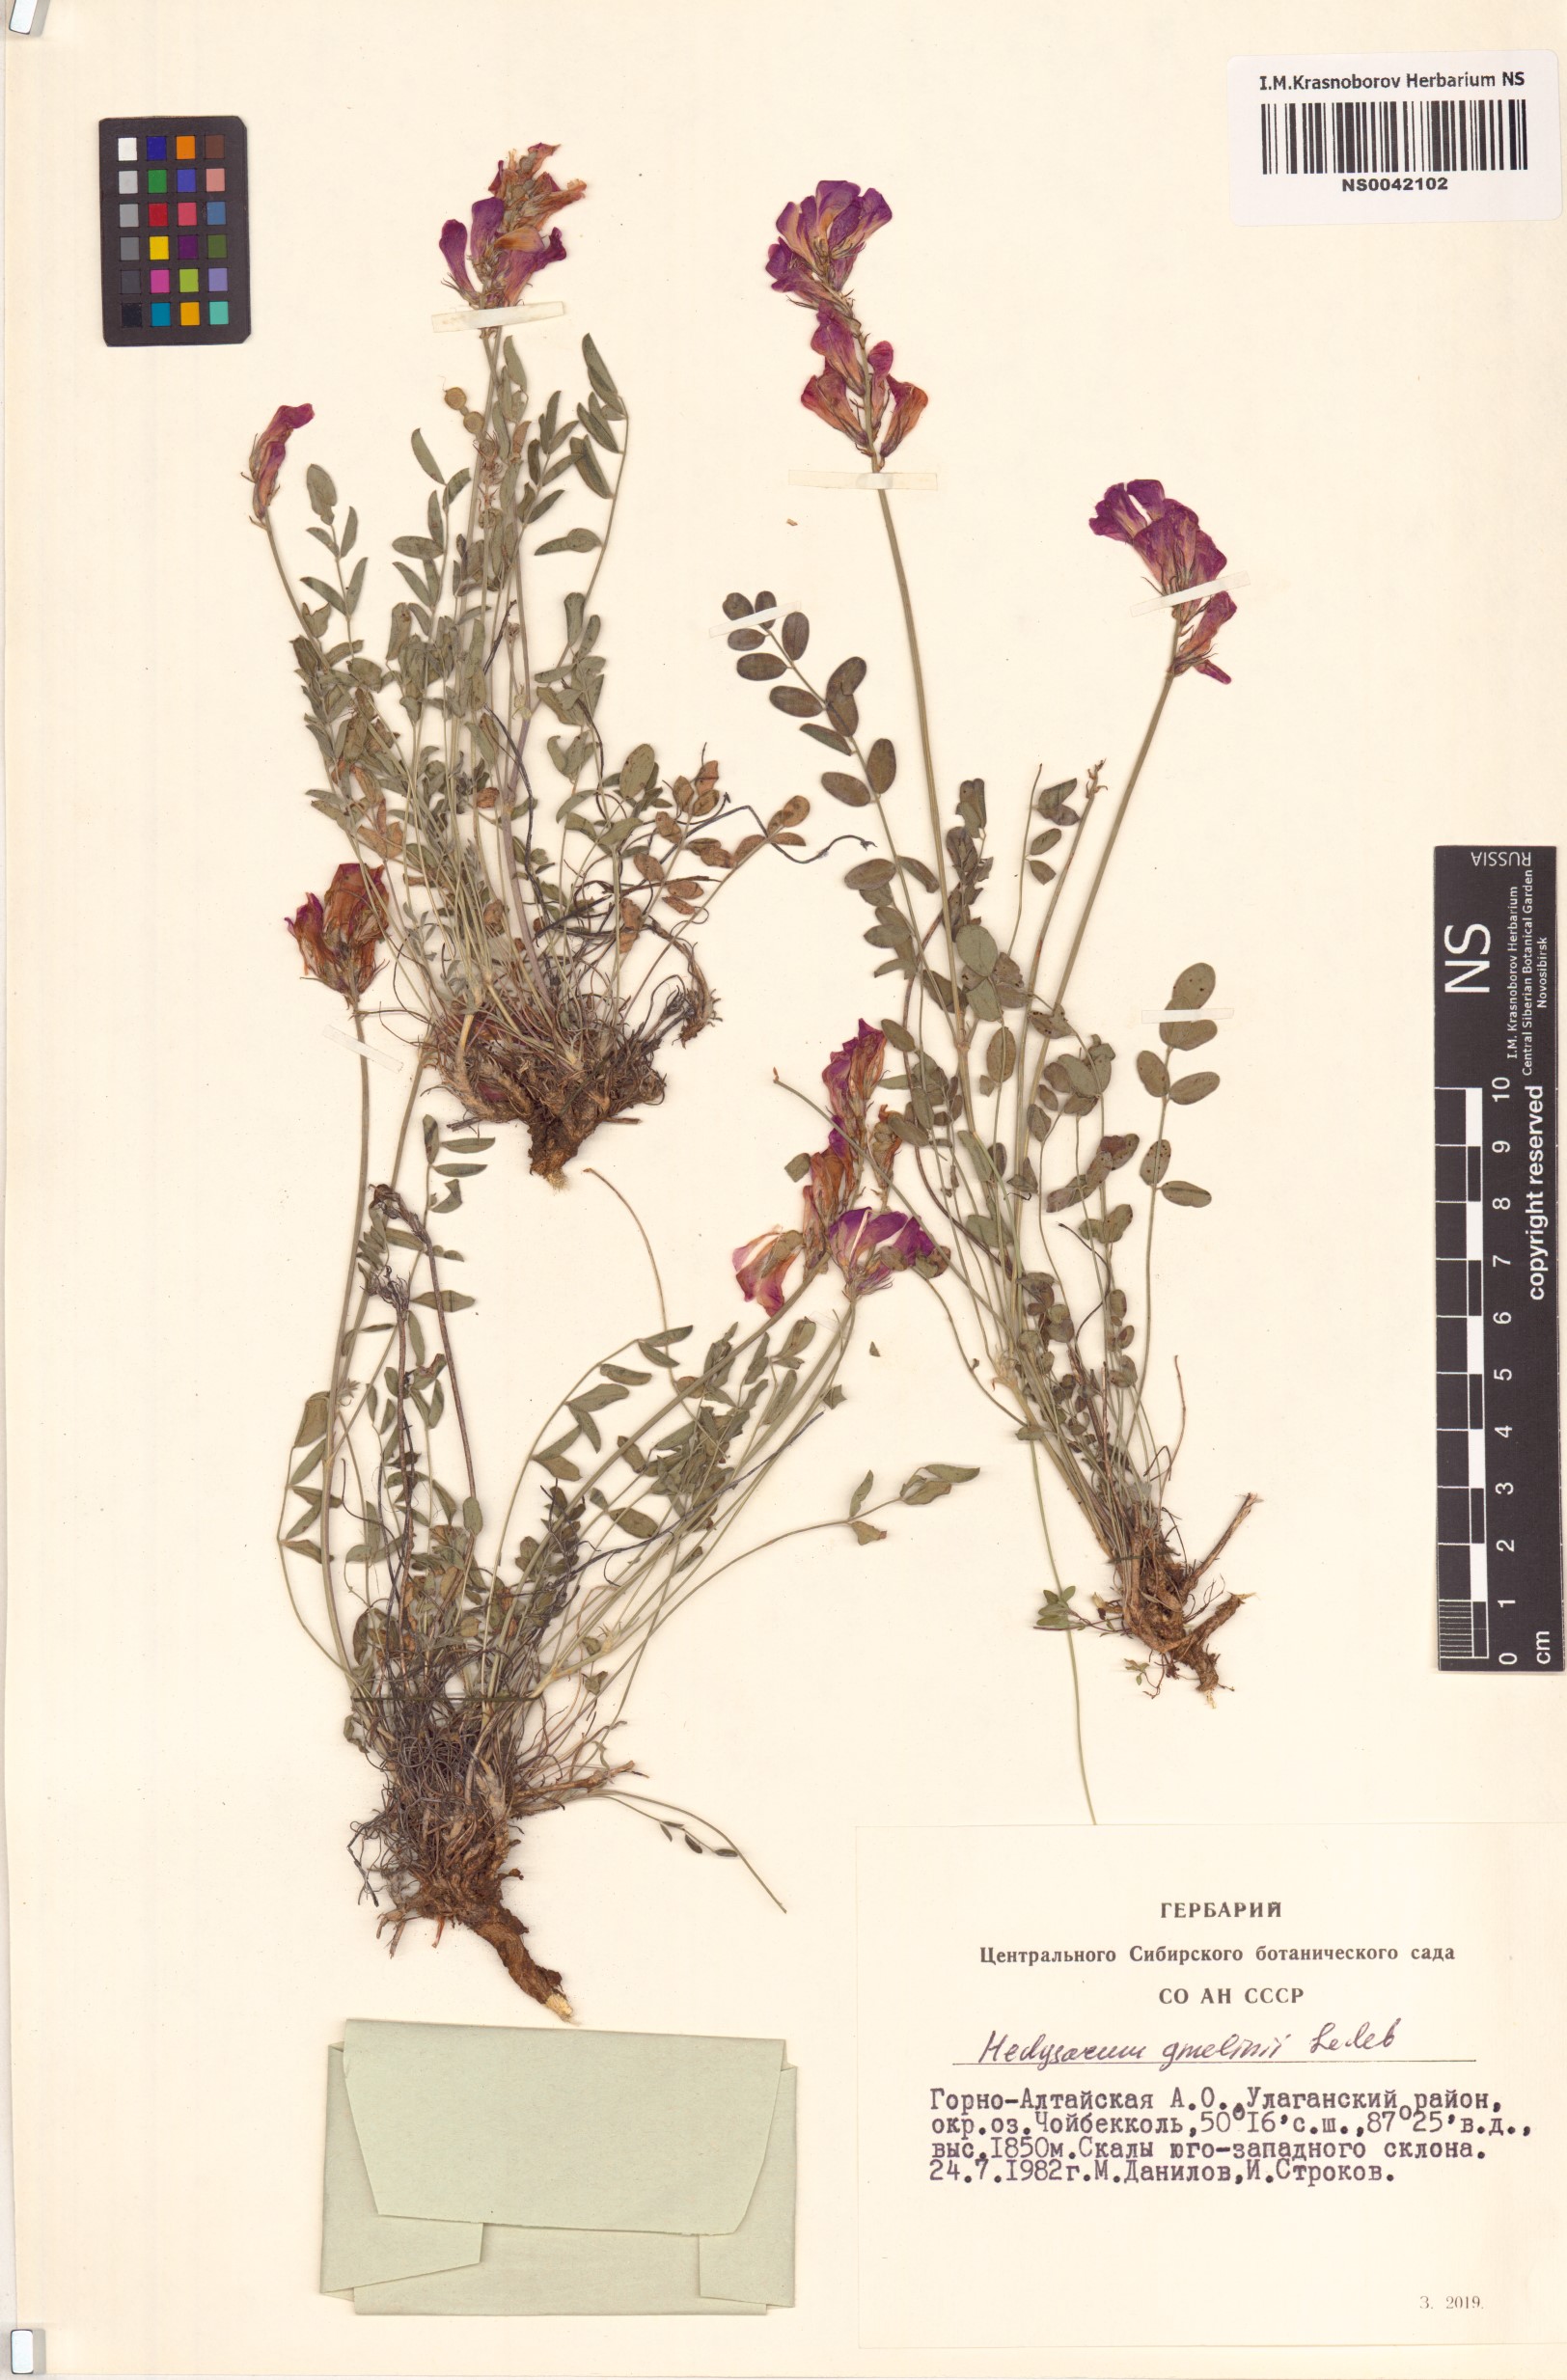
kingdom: Plantae
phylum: Tracheophyta
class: Magnoliopsida
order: Fabales
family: Fabaceae
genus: Hedysarum
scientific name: Hedysarum gmelinii
